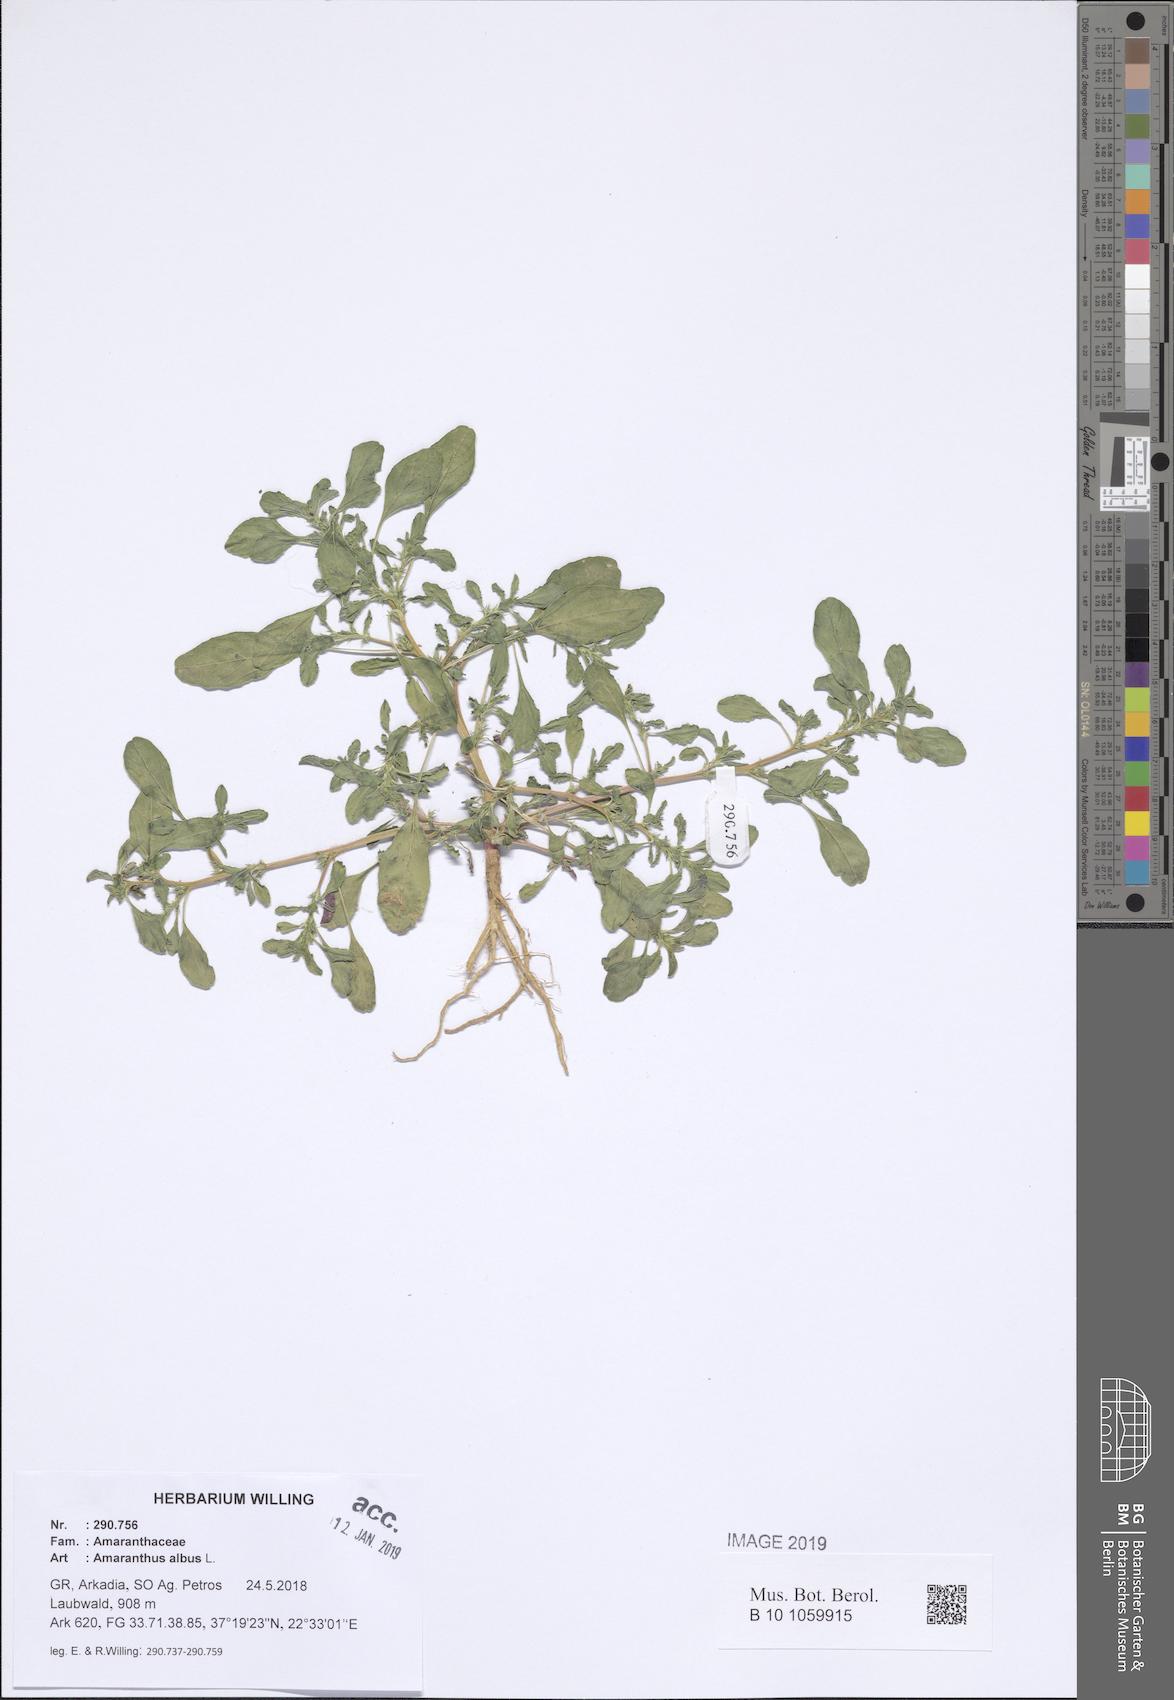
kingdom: Plantae
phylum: Tracheophyta
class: Magnoliopsida
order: Caryophyllales
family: Amaranthaceae
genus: Amaranthus
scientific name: Amaranthus albus
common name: White pigweed
